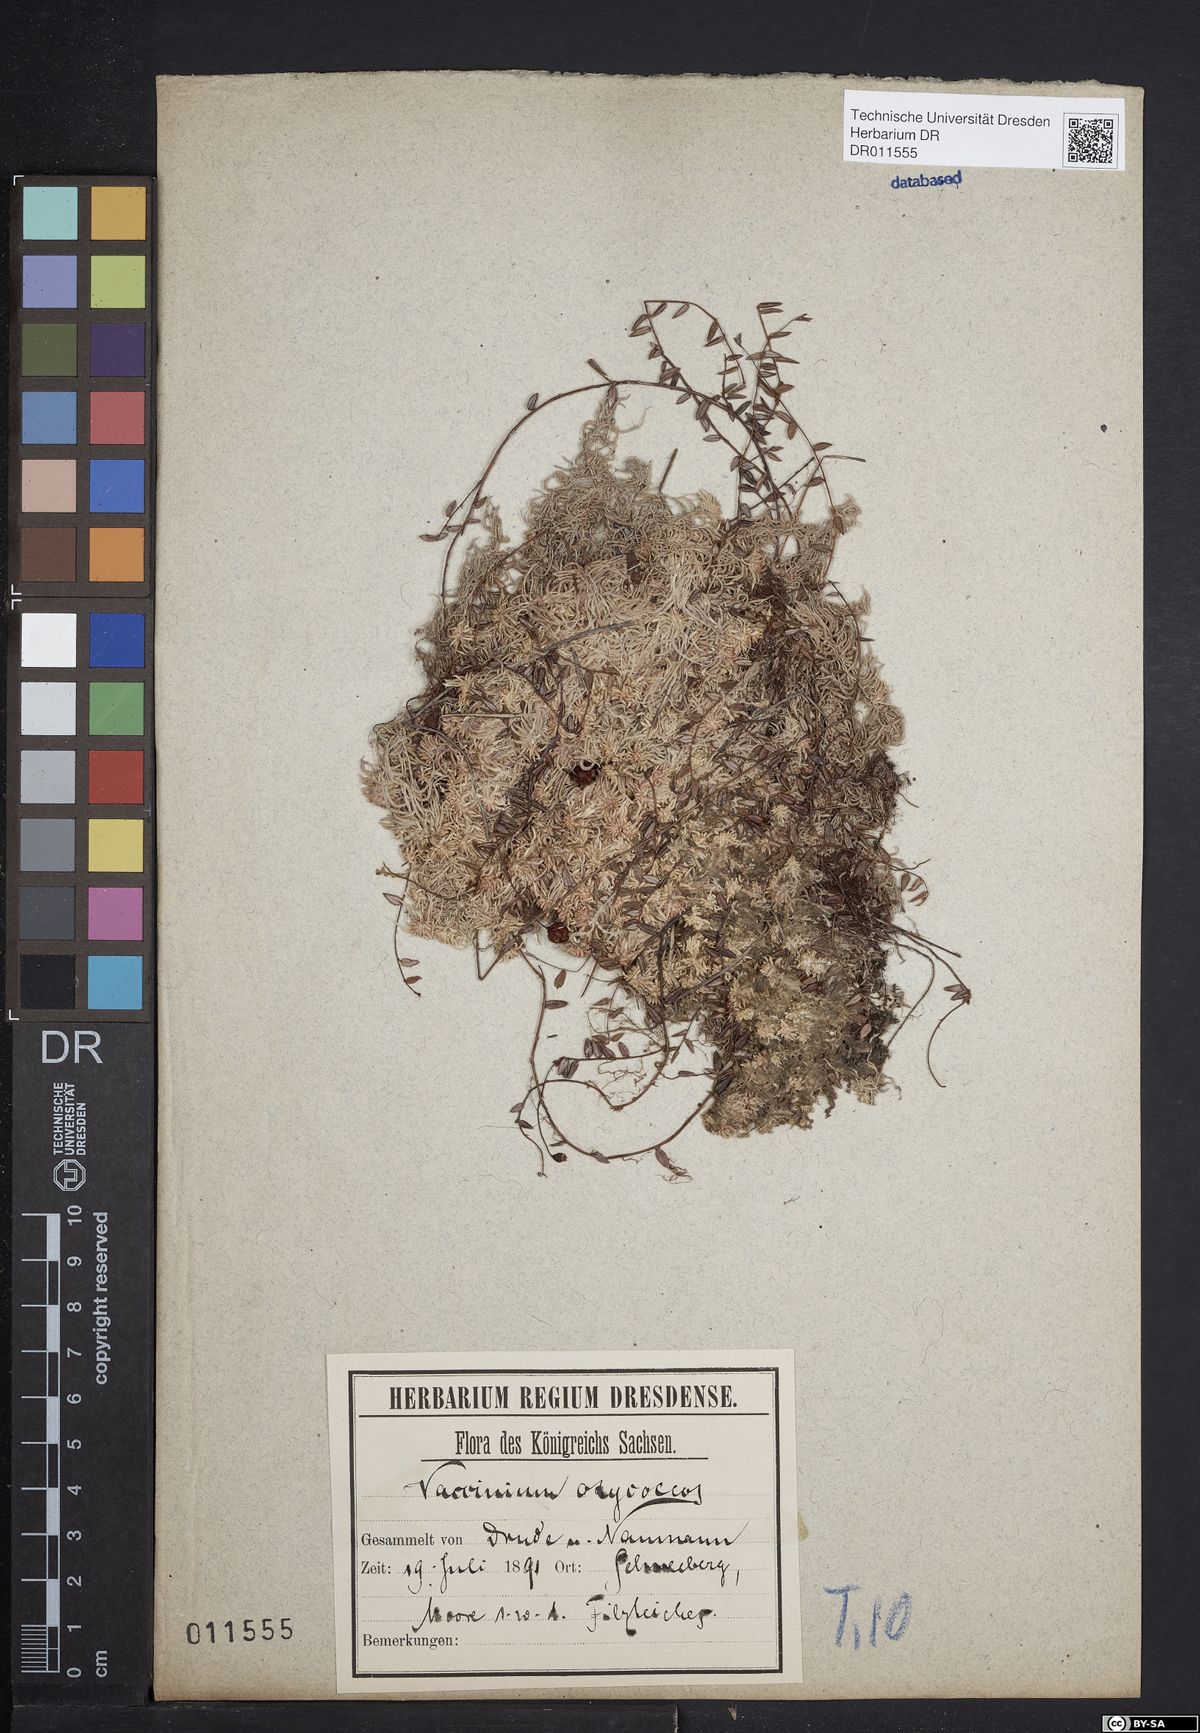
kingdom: Plantae
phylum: Tracheophyta
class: Magnoliopsida
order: Ericales
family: Ericaceae
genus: Vaccinium
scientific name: Vaccinium oxycoccos
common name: Cranberry
